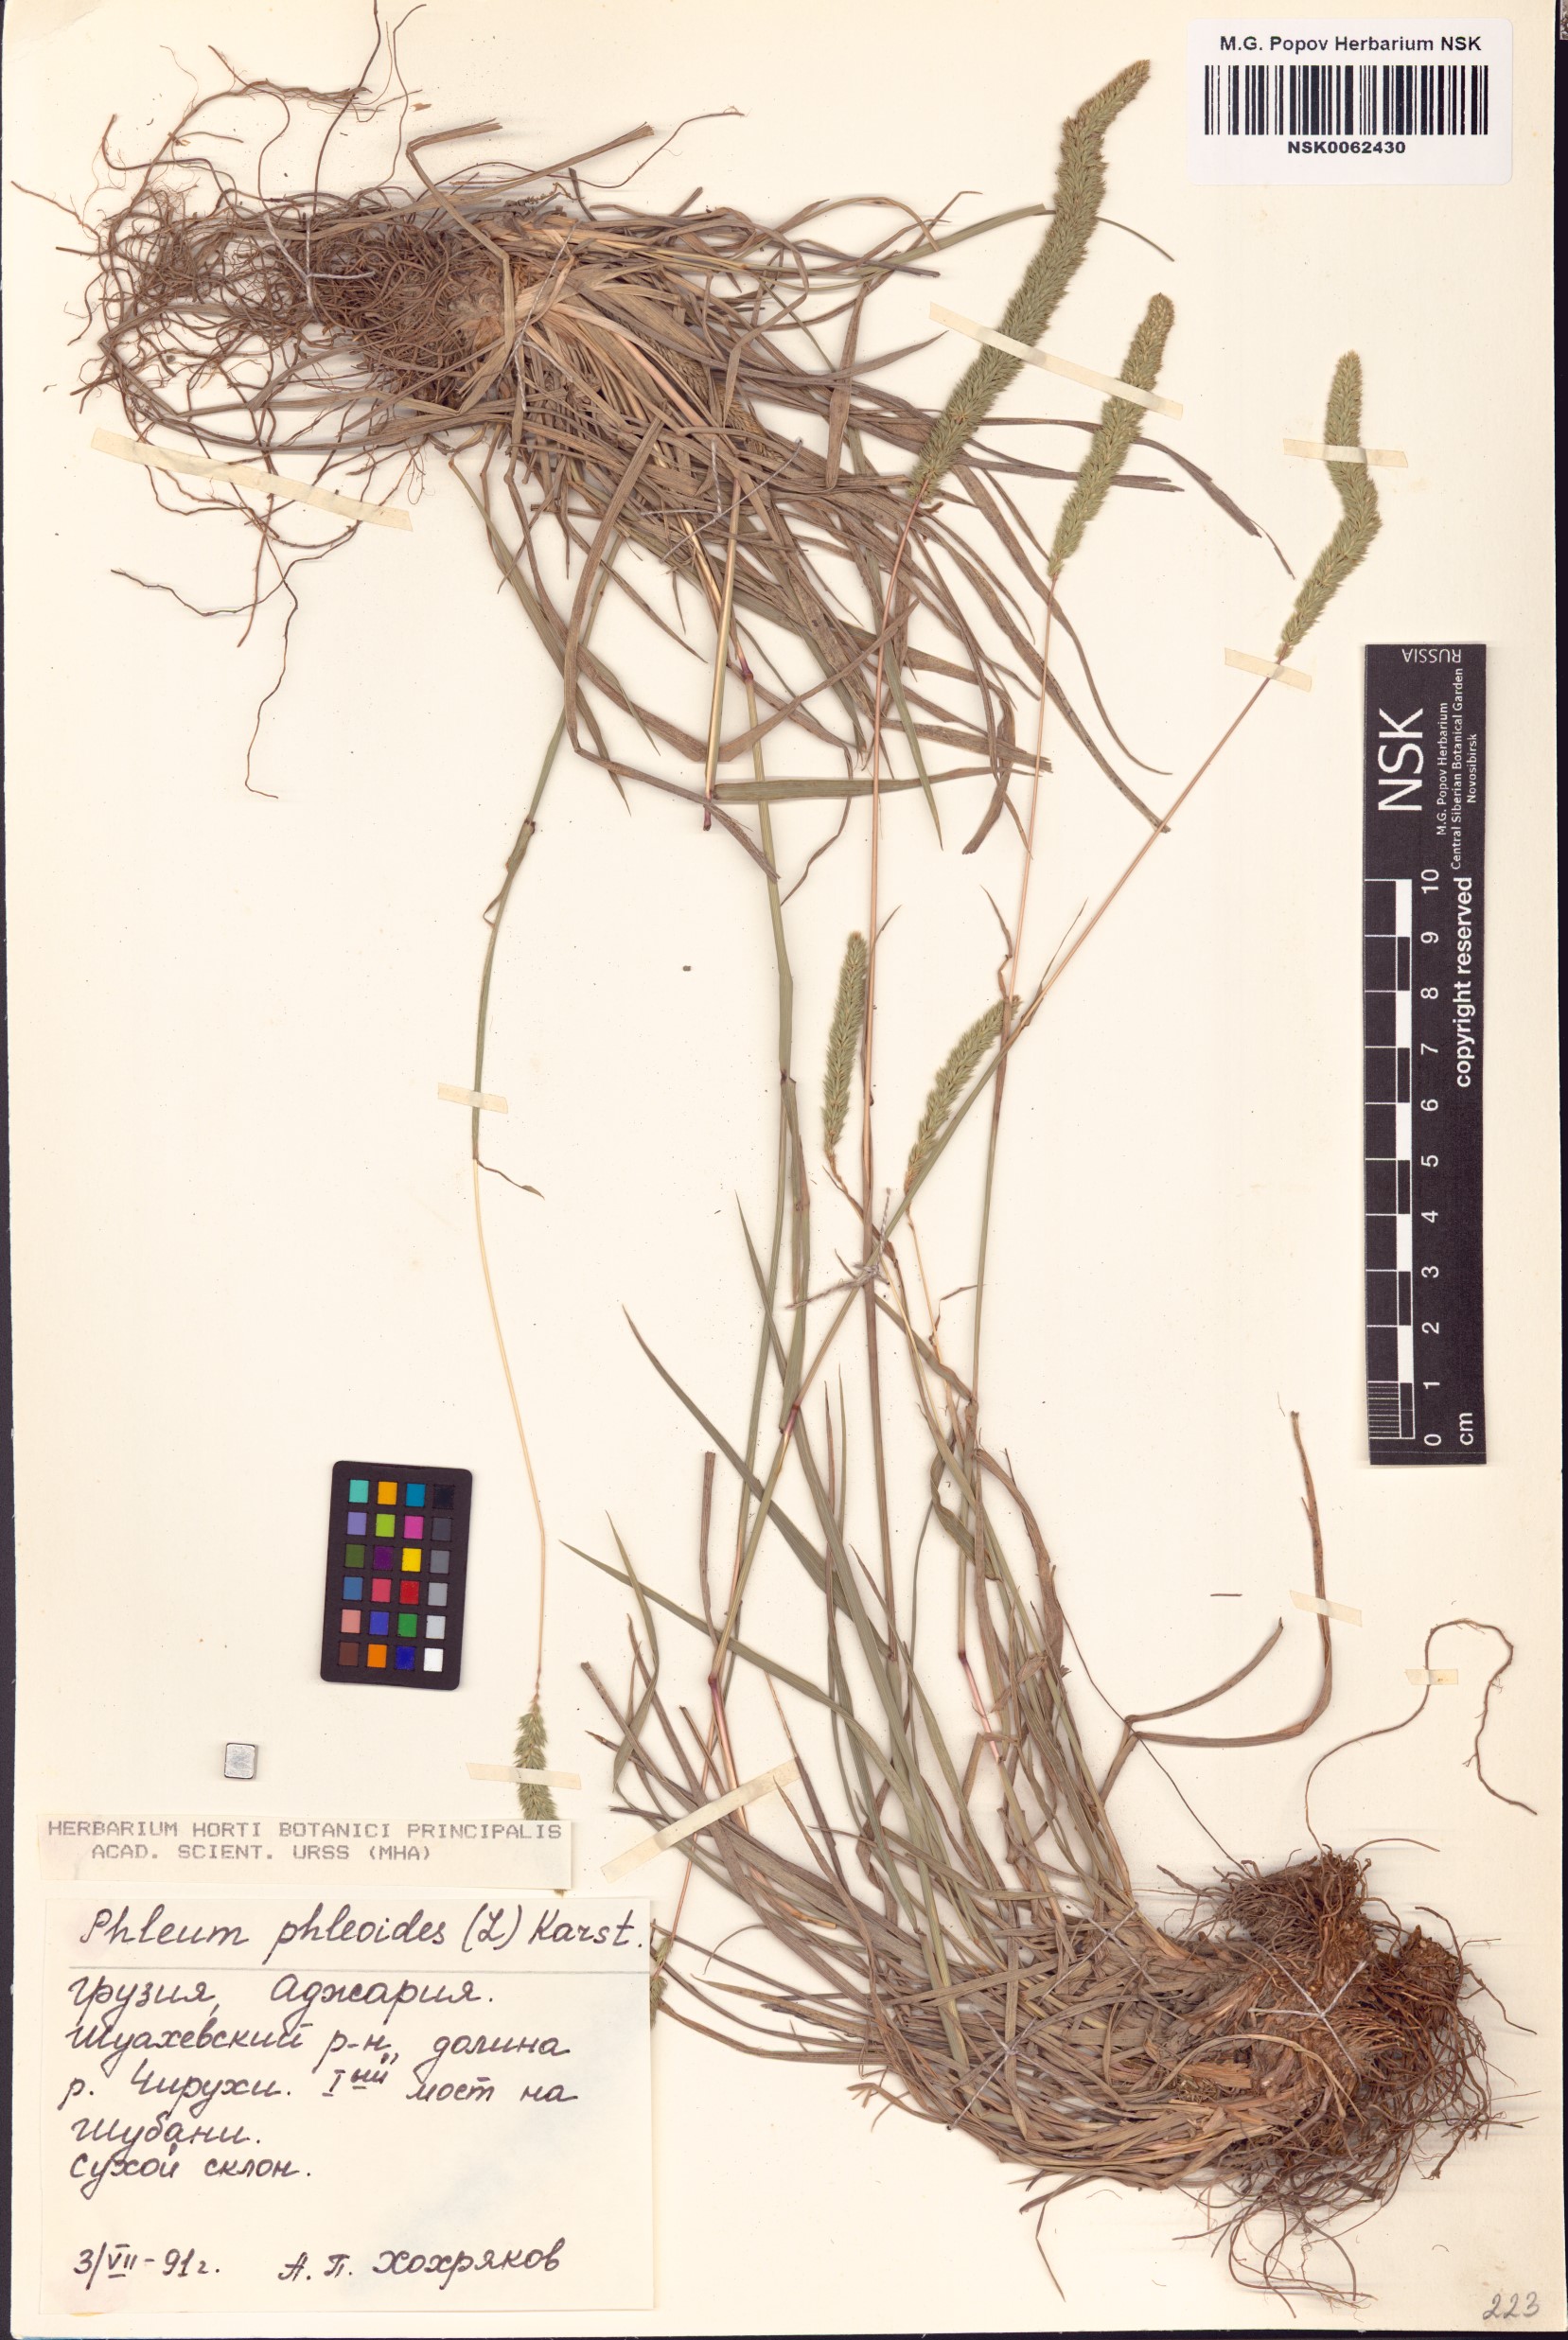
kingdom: Plantae
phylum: Tracheophyta
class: Liliopsida
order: Poales
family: Poaceae
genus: Phleum
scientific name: Phleum phleoides
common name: Purple-stem cat's-tail
